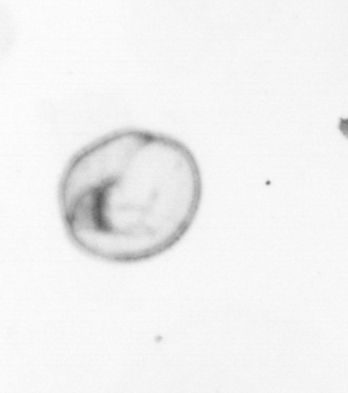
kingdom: Chromista
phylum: Myzozoa
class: Dinophyceae
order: Noctilucales
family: Noctilucaceae
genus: Noctiluca
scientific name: Noctiluca scintillans
